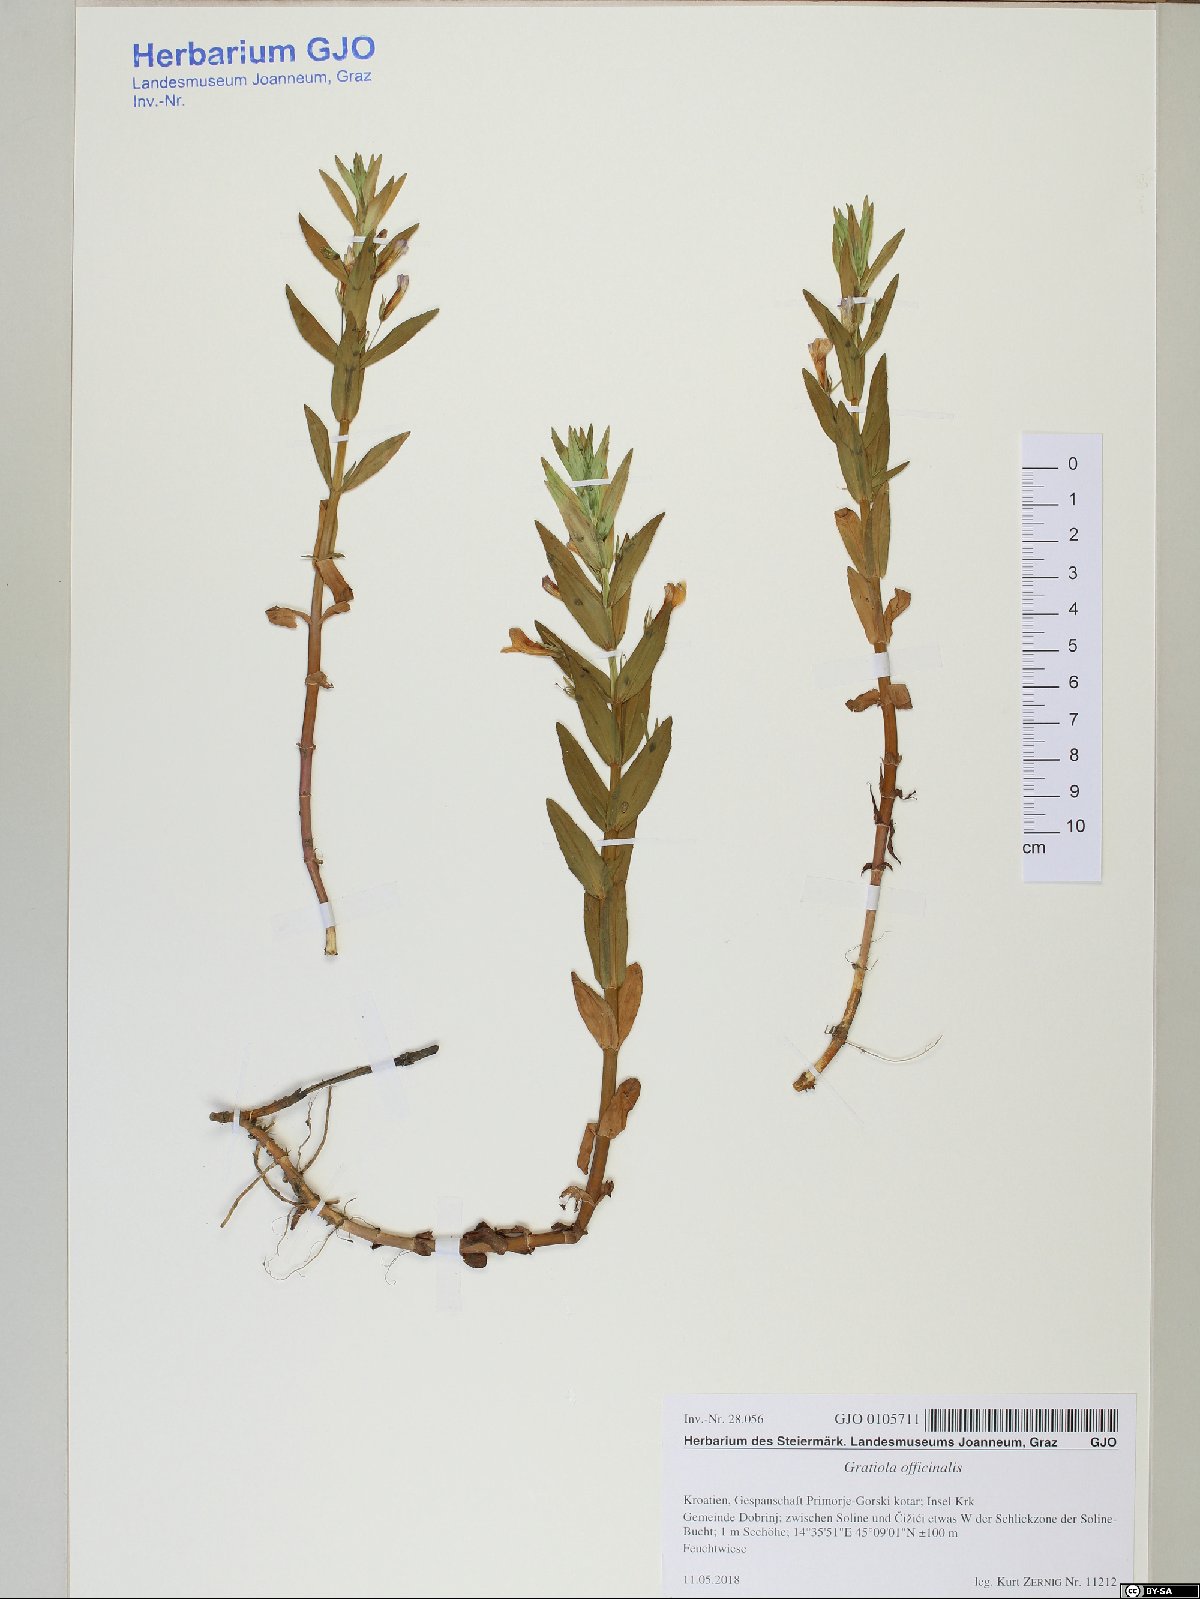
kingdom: Plantae
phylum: Tracheophyta
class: Magnoliopsida
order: Lamiales
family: Plantaginaceae
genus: Gratiola
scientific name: Gratiola officinalis
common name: Gratiola
